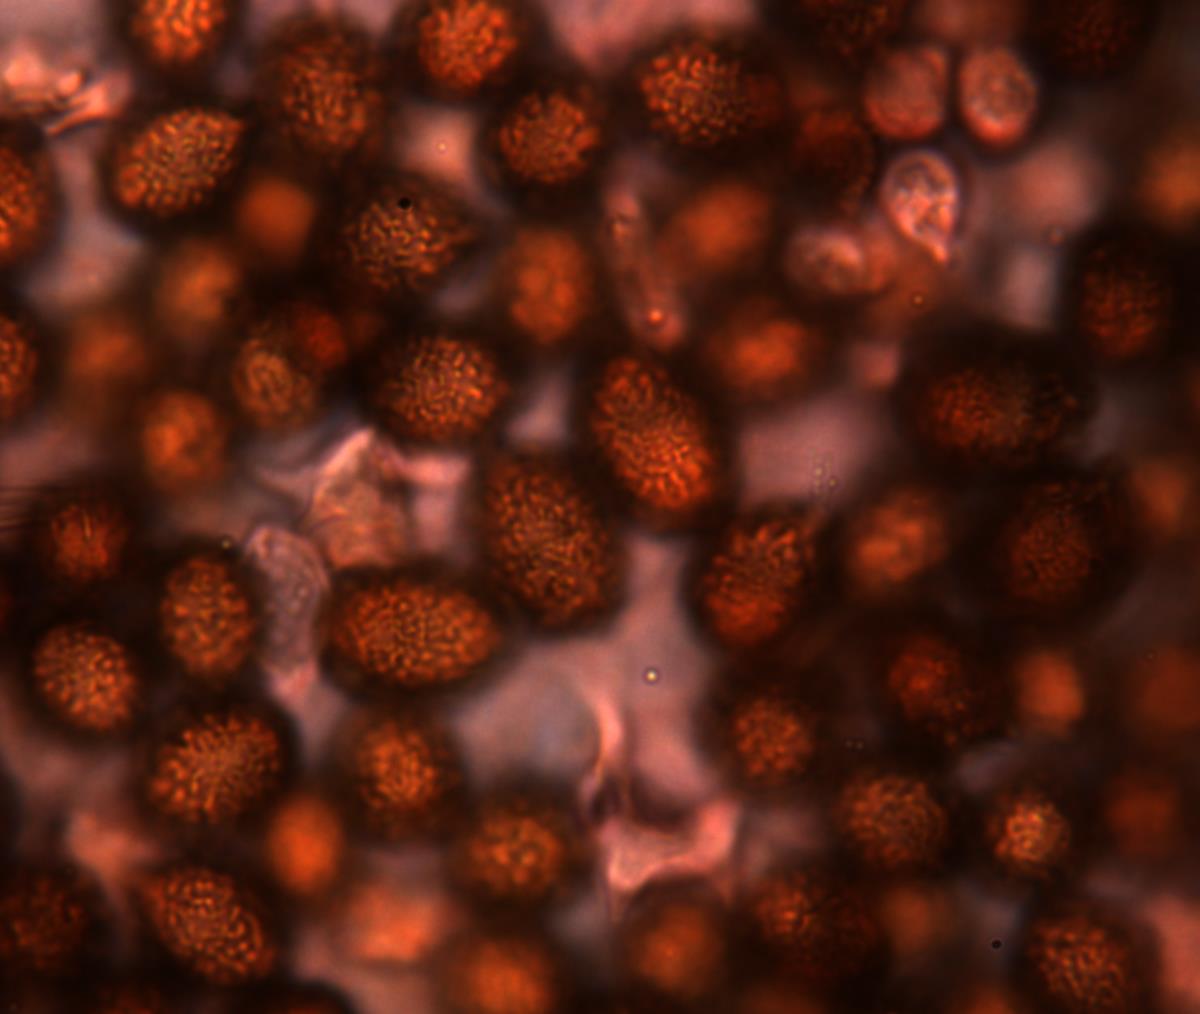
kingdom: Fungi
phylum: Basidiomycota
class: Agaricomycetes
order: Agaricales
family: Cortinariaceae
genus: Cortinarius
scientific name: Cortinarius cartilagineus
